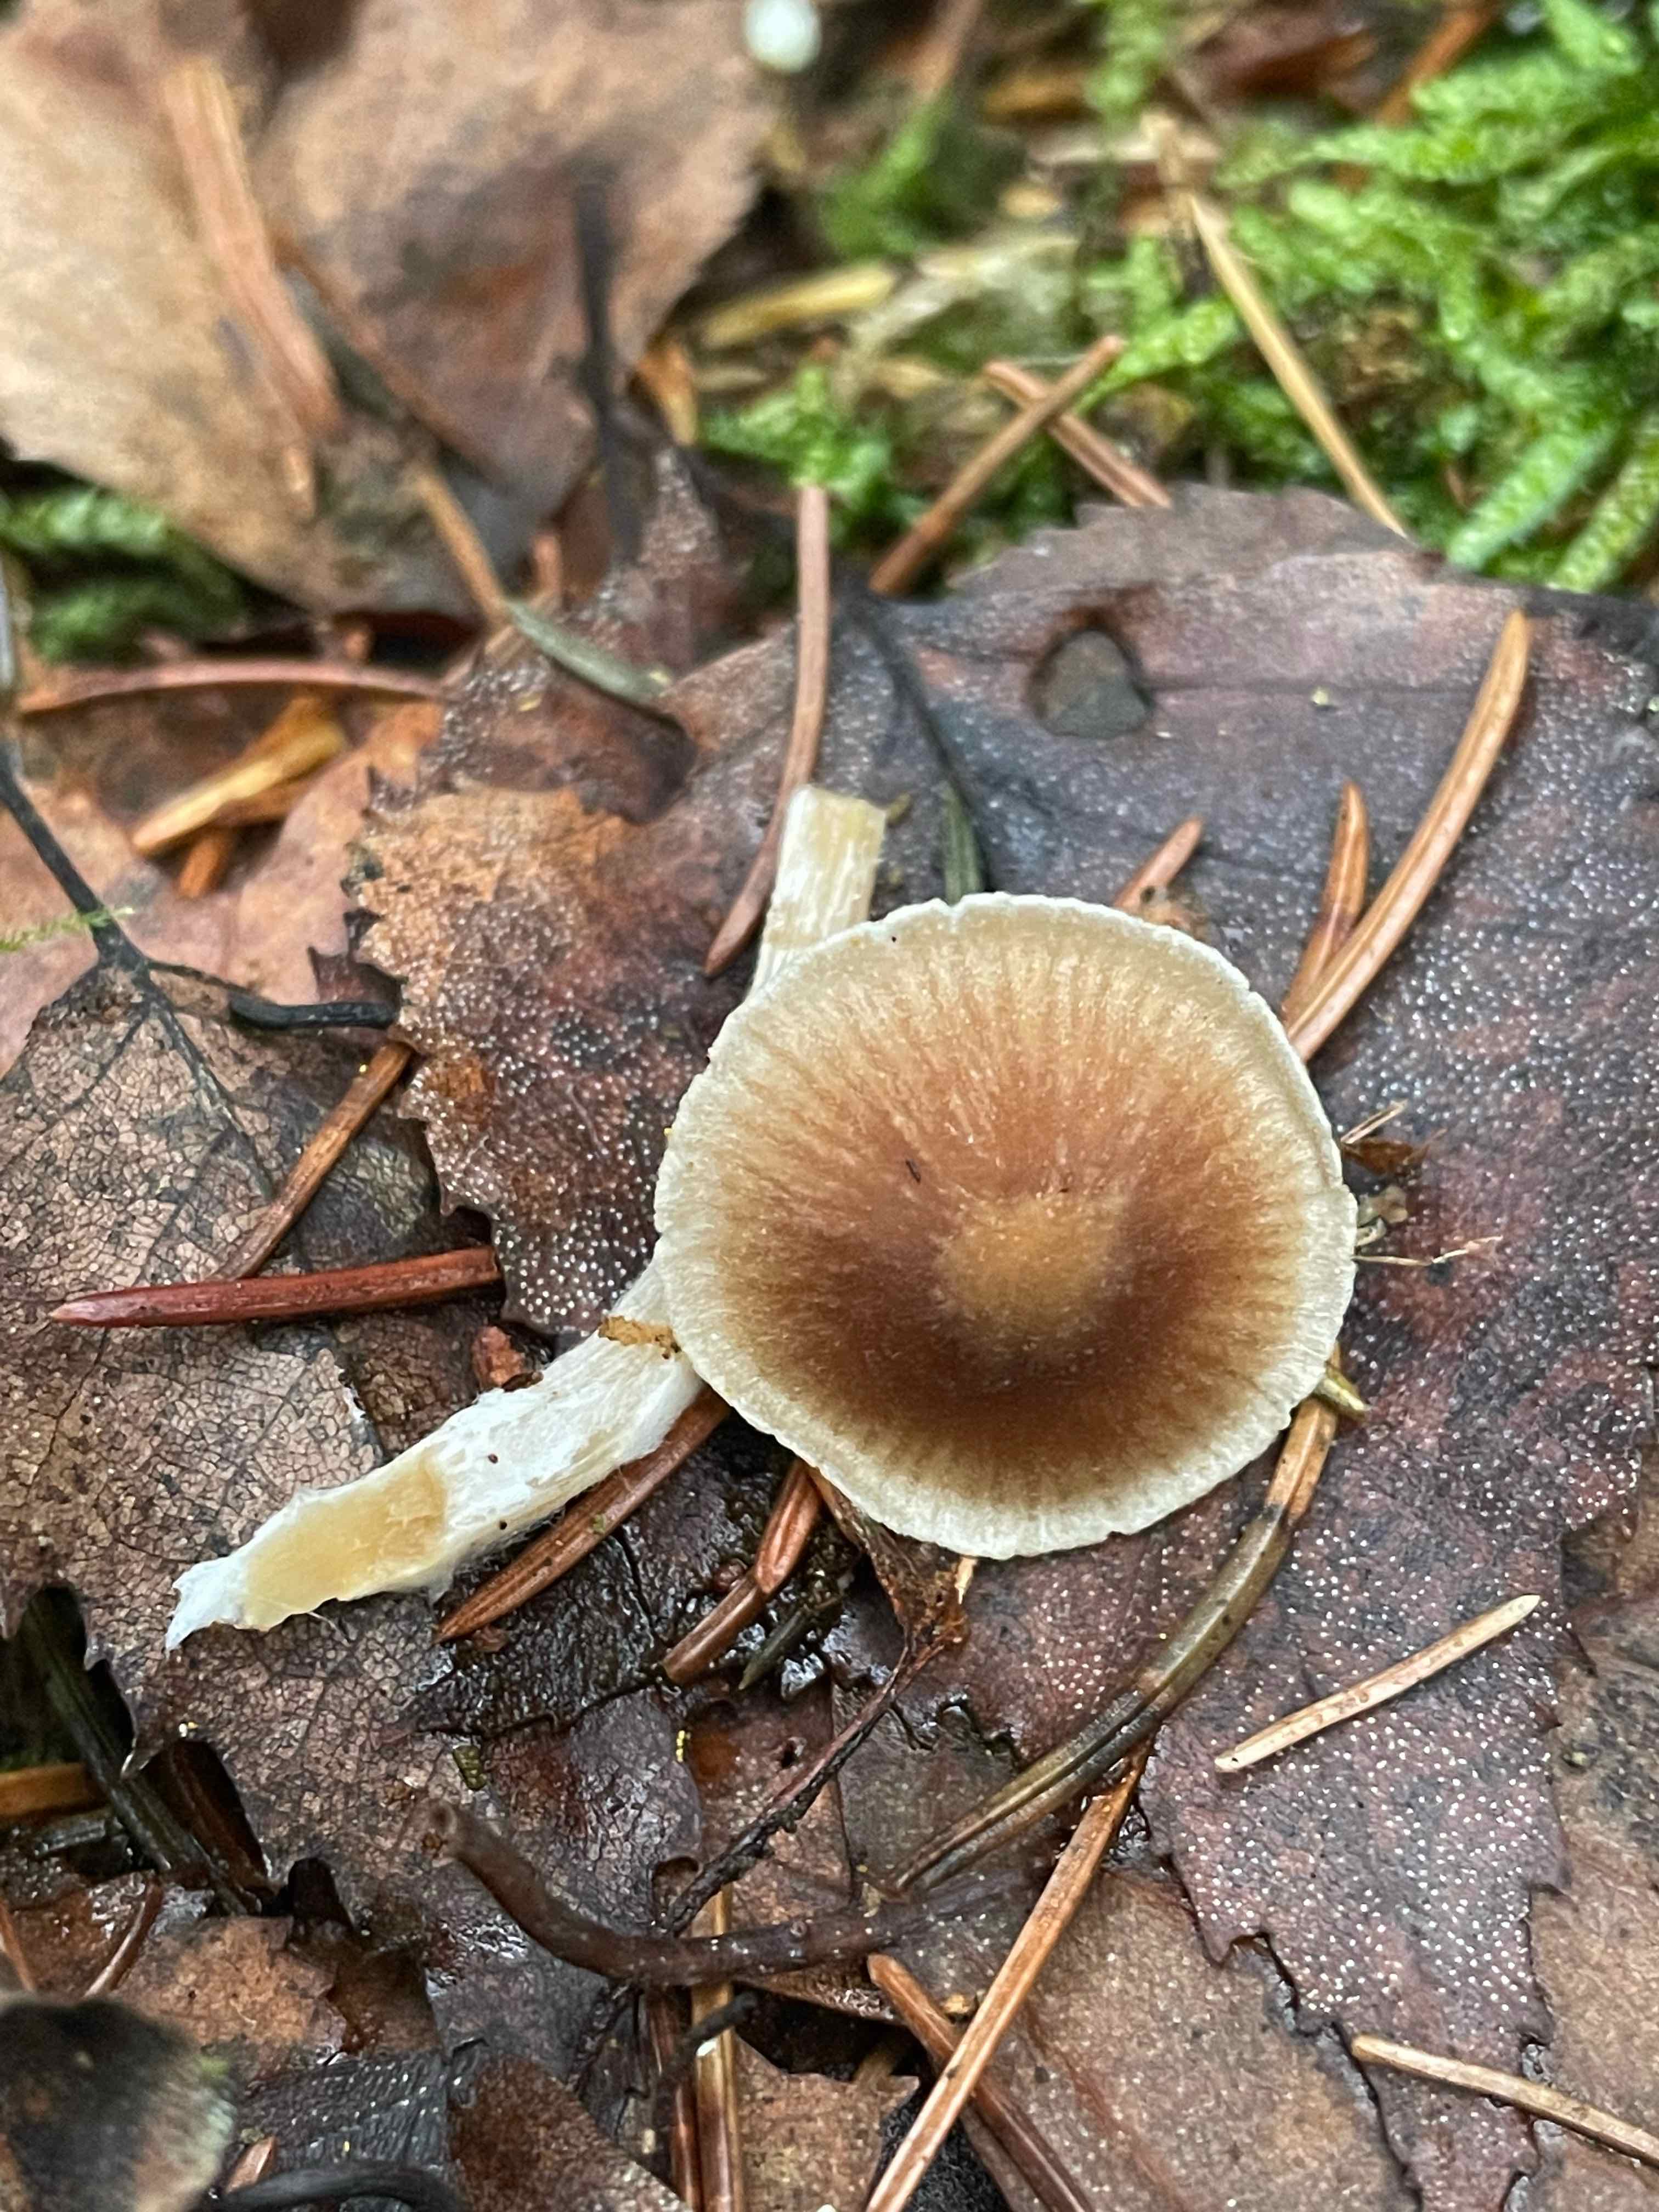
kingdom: Fungi
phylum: Basidiomycota
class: Agaricomycetes
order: Agaricales
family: Entolomataceae
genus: Entoloma
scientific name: Entoloma cetratum
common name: voks-rødblad
